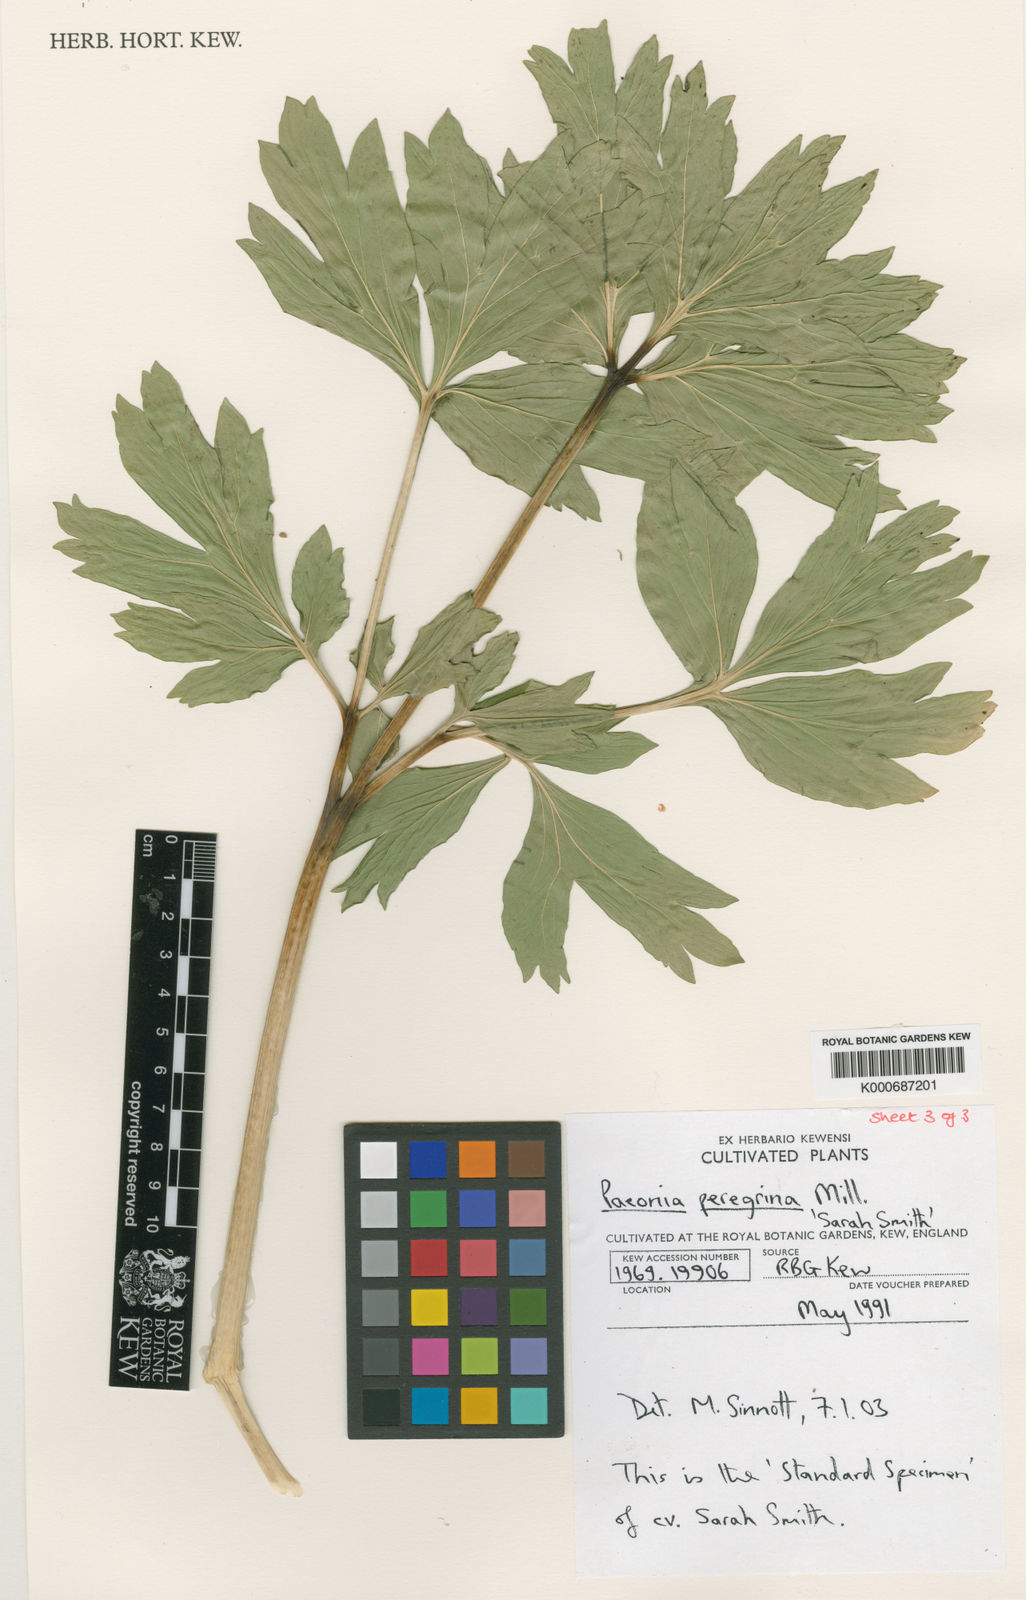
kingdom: Plantae
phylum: Tracheophyta
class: Magnoliopsida
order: Saxifragales
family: Paeoniaceae
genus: Paeonia
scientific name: Paeonia peregrina
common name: Scarlet peony
